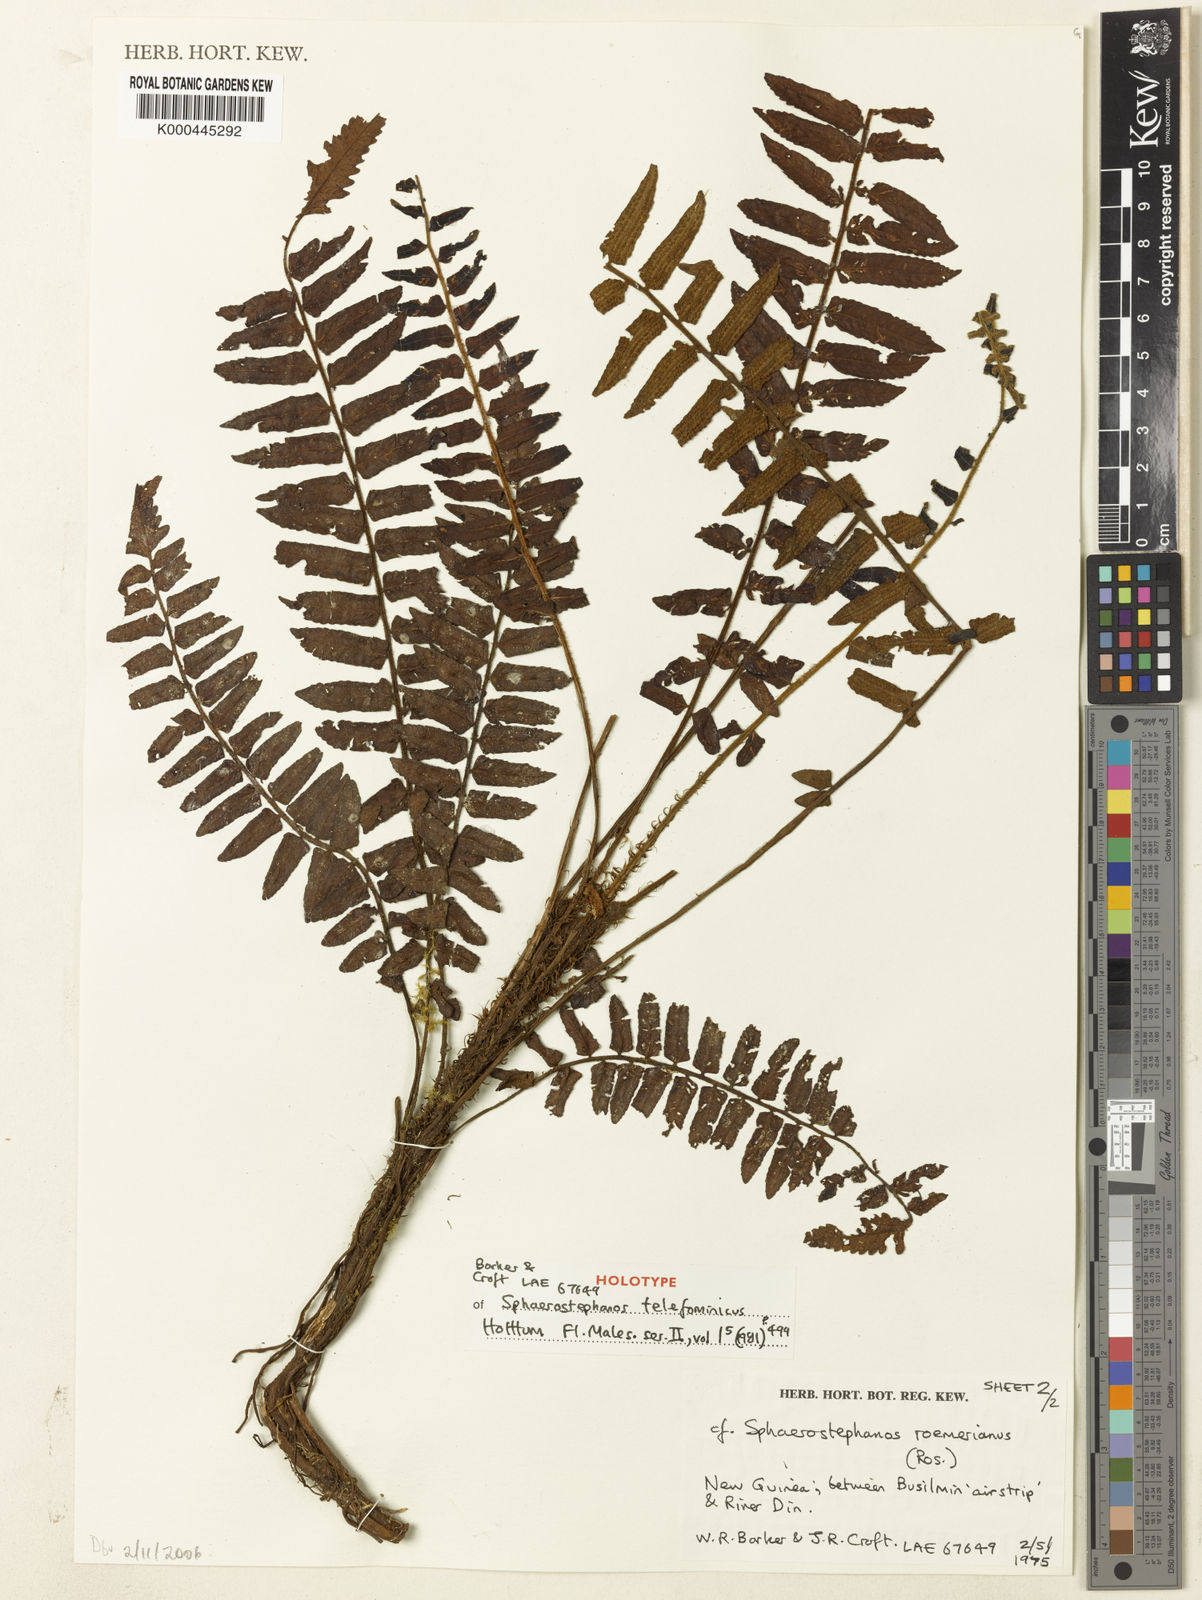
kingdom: Plantae
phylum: Tracheophyta
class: Polypodiopsida
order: Polypodiales
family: Thelypteridaceae
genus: Sphaerostephanos
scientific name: Sphaerostephanos telefominicus
